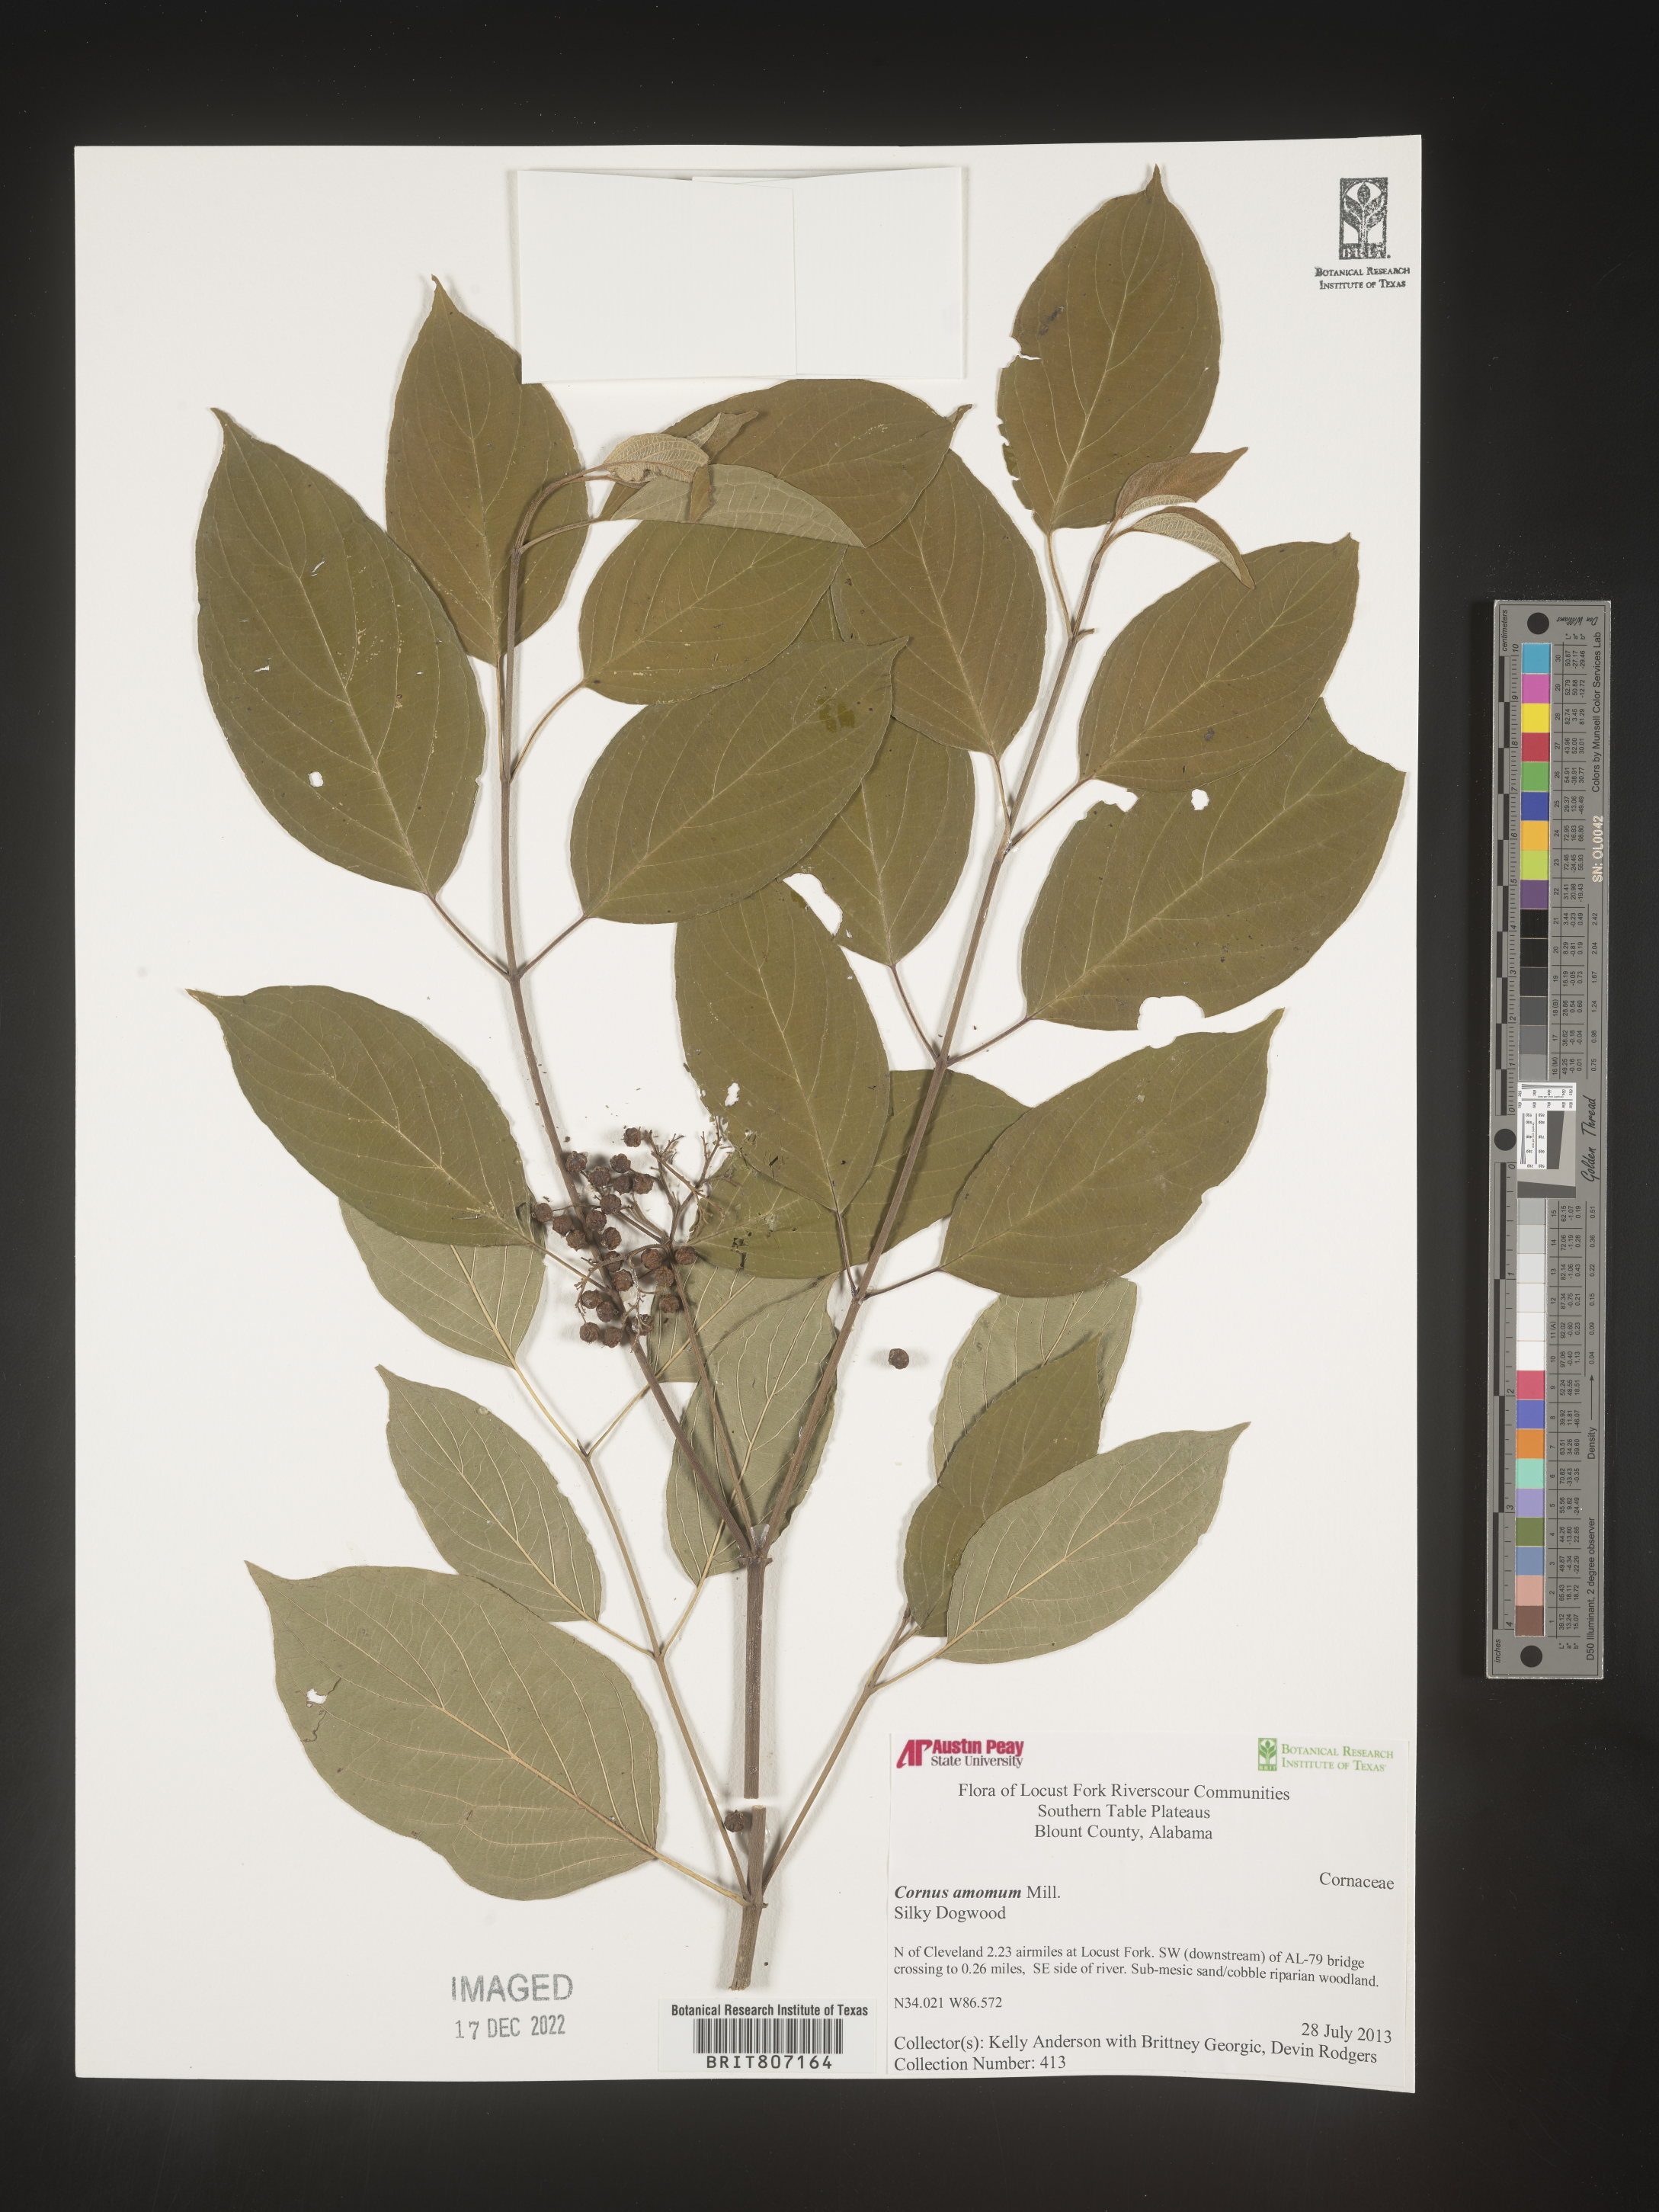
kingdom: Plantae
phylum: Tracheophyta
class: Magnoliopsida
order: Cornales
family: Cornaceae
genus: Cornus
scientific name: Cornus amomum
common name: Silky dogwood
